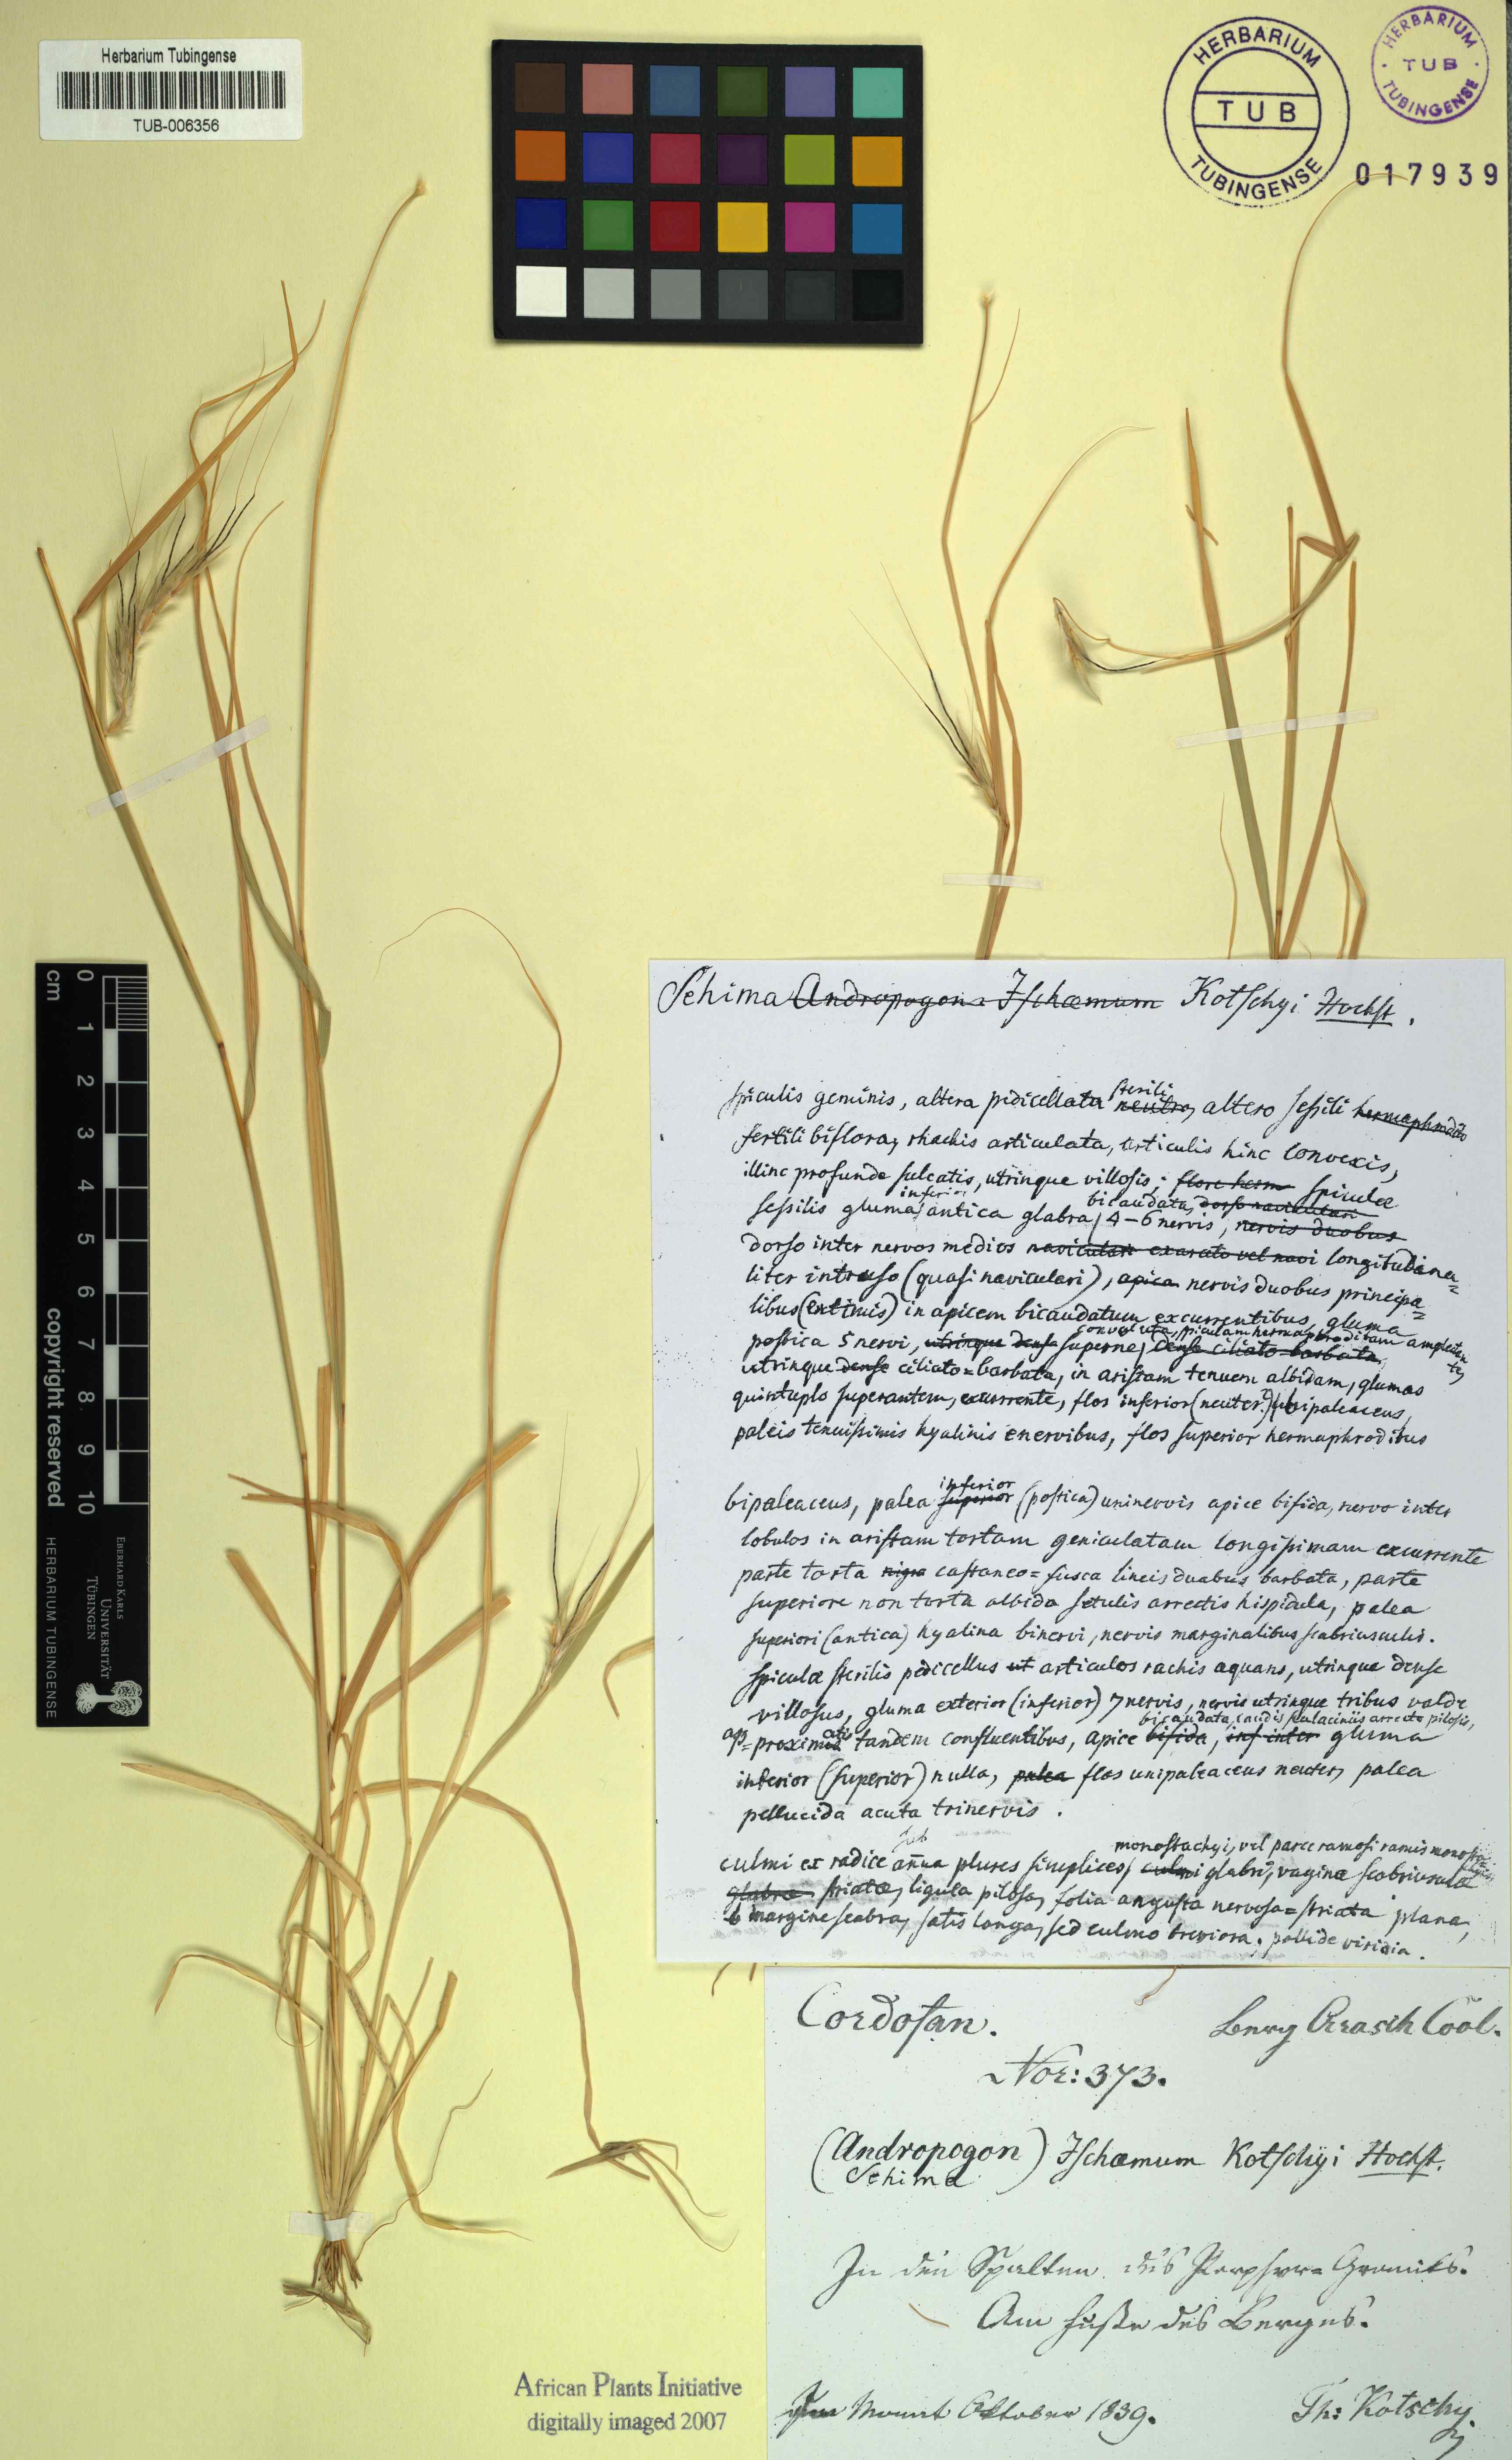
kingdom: Plantae
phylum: Tracheophyta
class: Liliopsida
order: Poales
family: Poaceae
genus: Sehima
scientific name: Sehima nervosa
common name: Rat-tail grass
